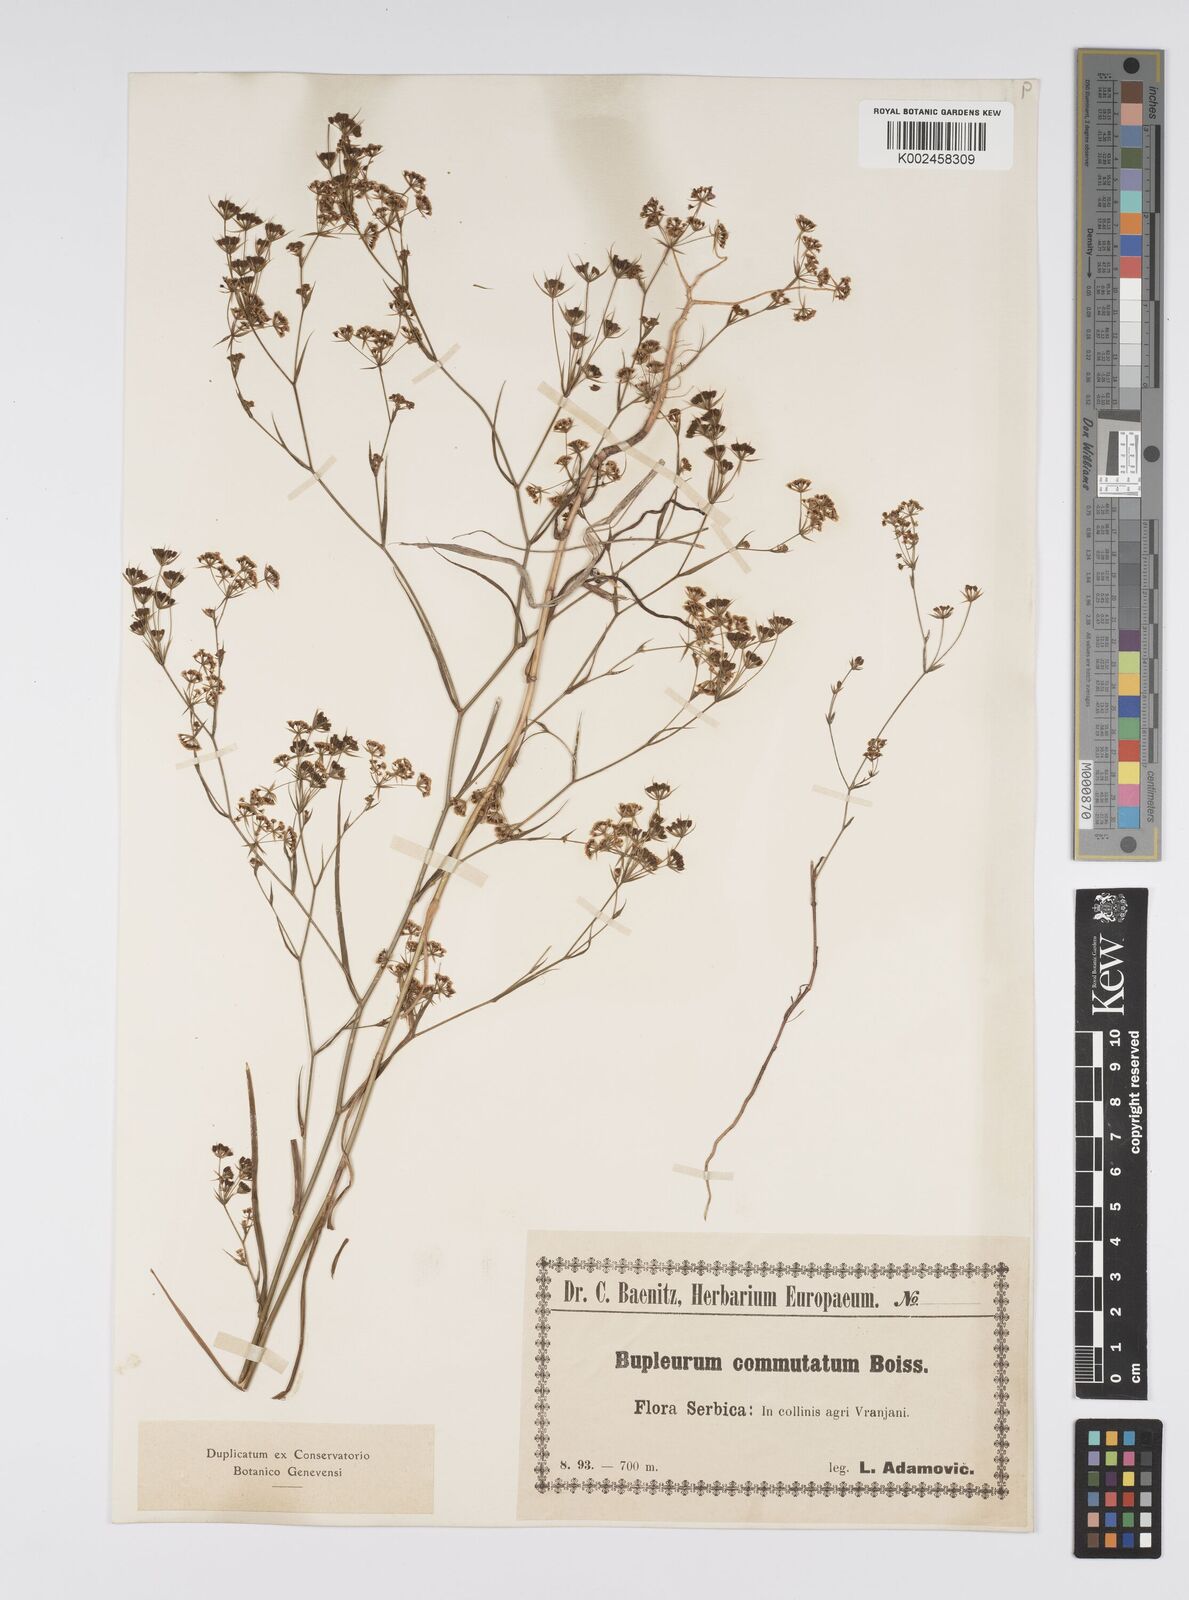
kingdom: Plantae
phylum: Tracheophyta
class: Magnoliopsida
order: Apiales
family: Apiaceae
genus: Bupleurum
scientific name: Bupleurum commutatum
